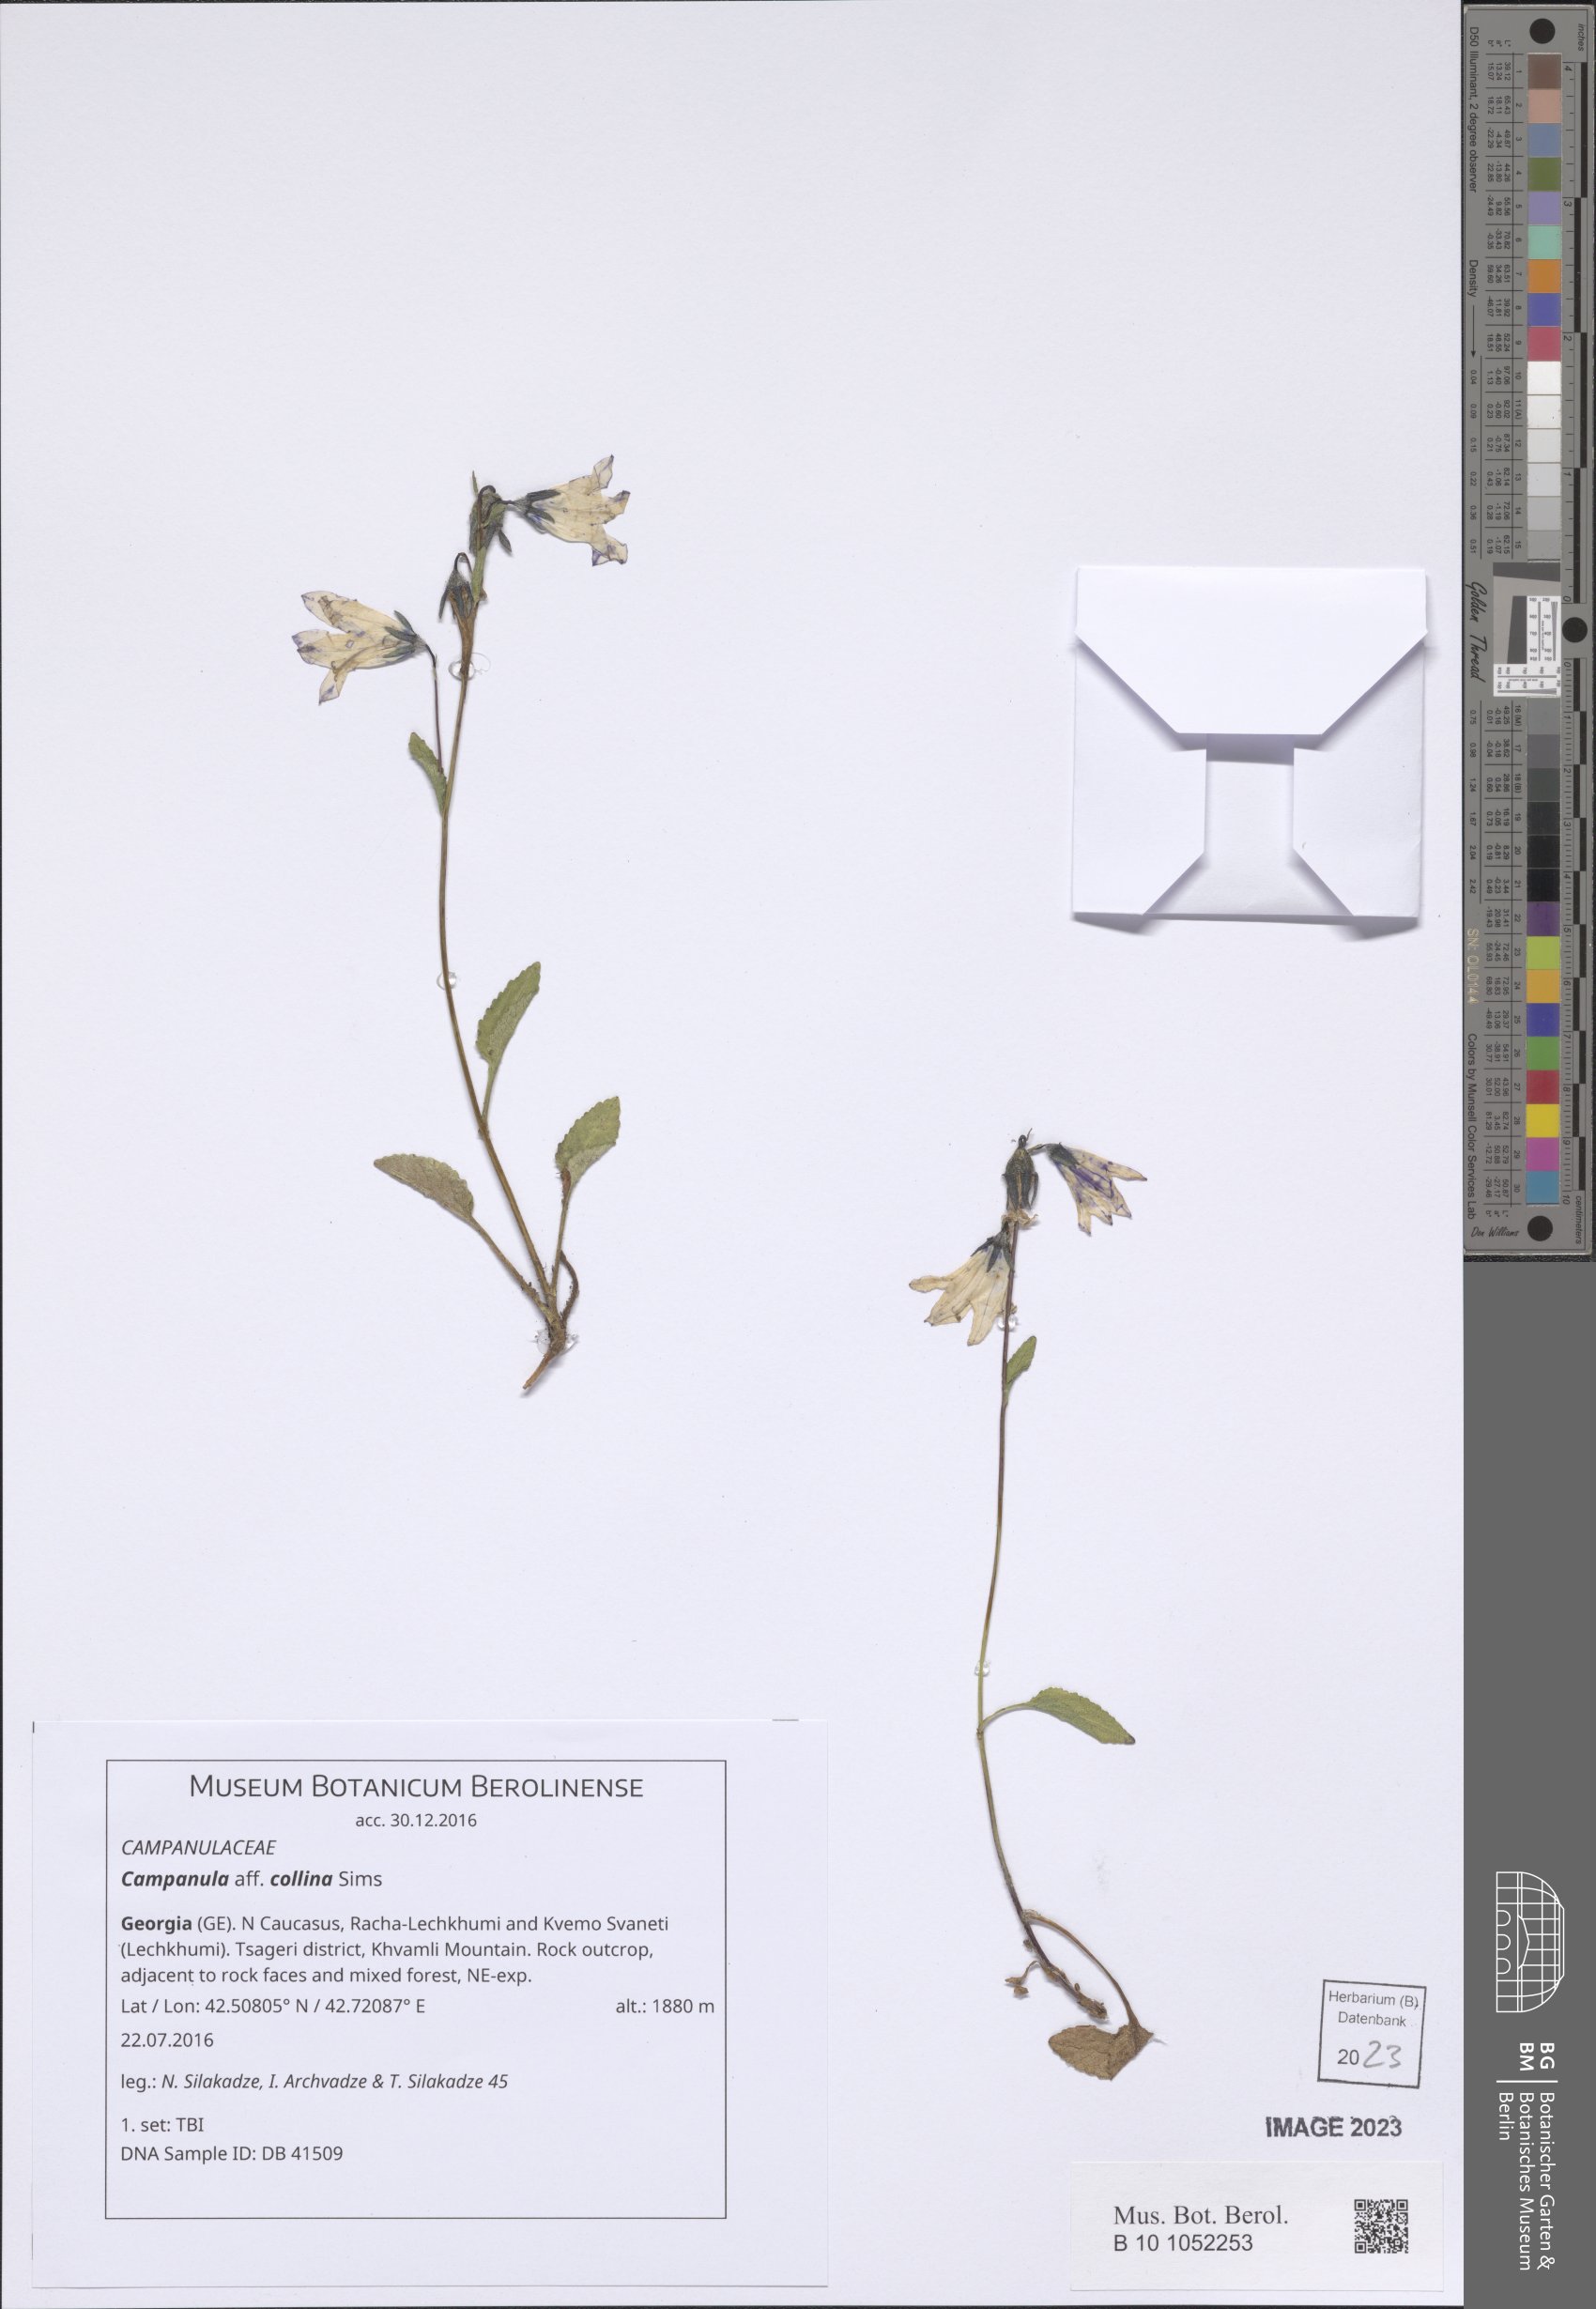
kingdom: Plantae
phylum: Tracheophyta
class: Magnoliopsida
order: Asterales
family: Campanulaceae
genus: Campanula
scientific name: Campanula collina
